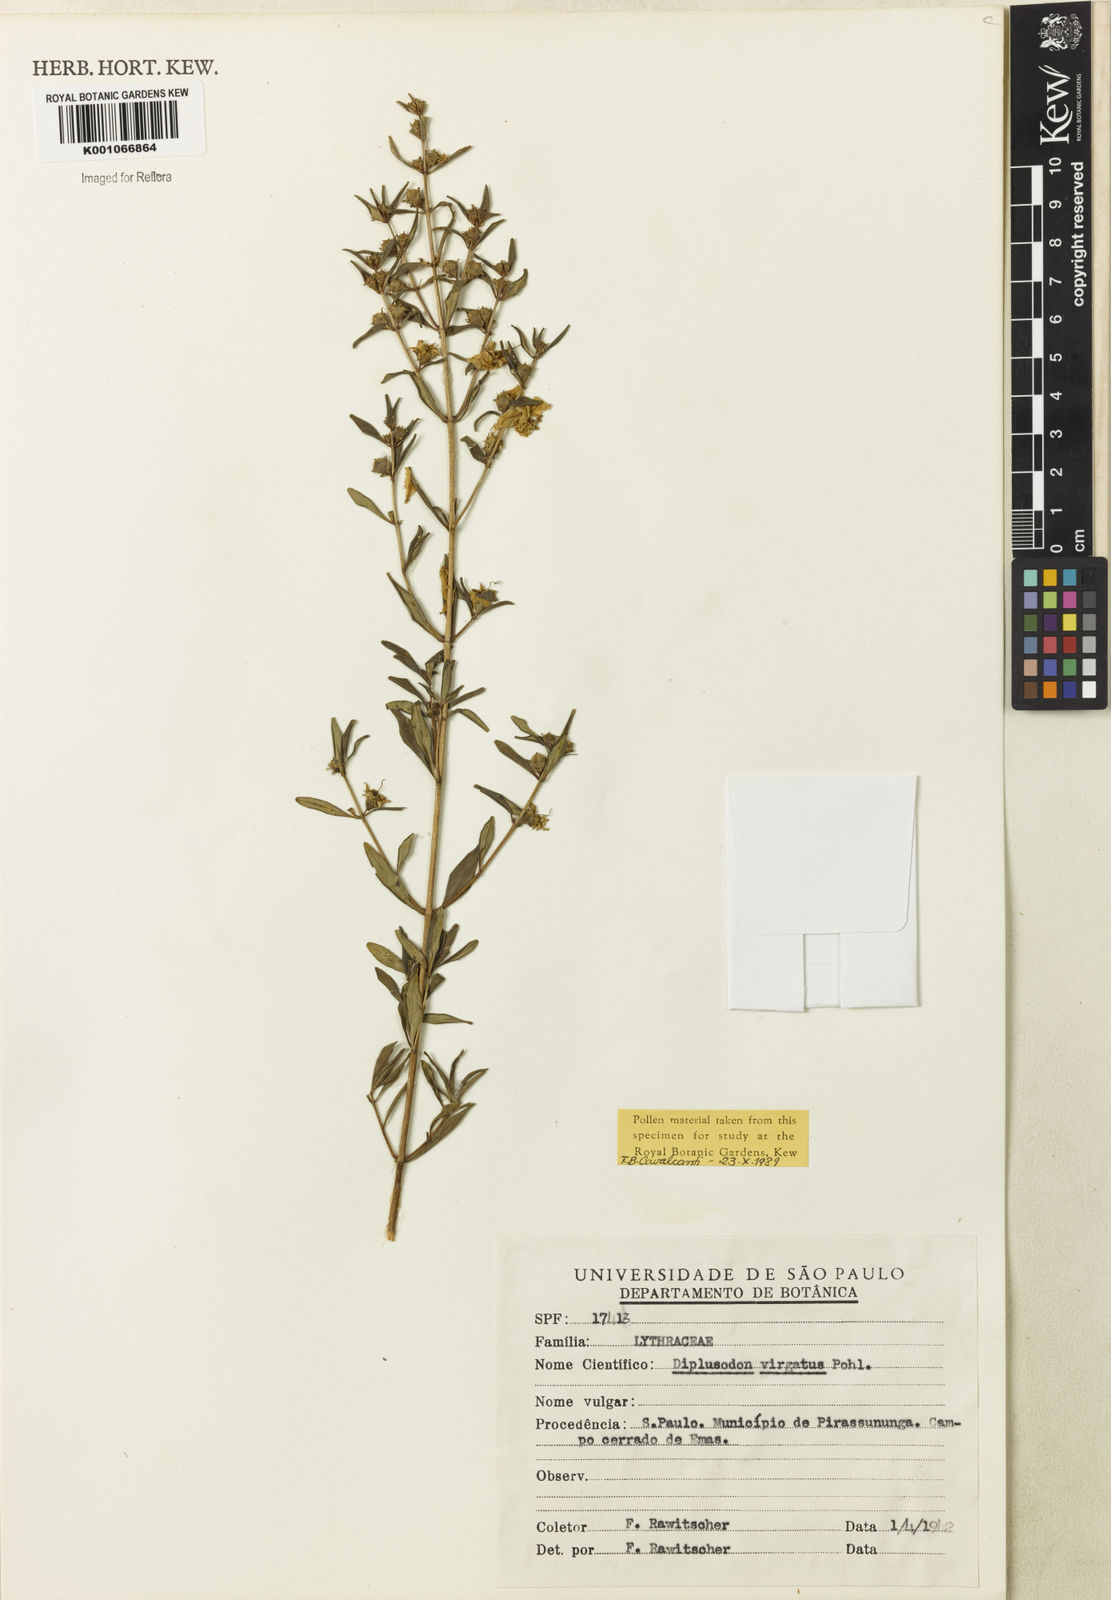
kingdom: Plantae
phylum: Tracheophyta
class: Magnoliopsida
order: Myrtales
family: Lythraceae
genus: Diplusodon
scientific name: Diplusodon virgatus
